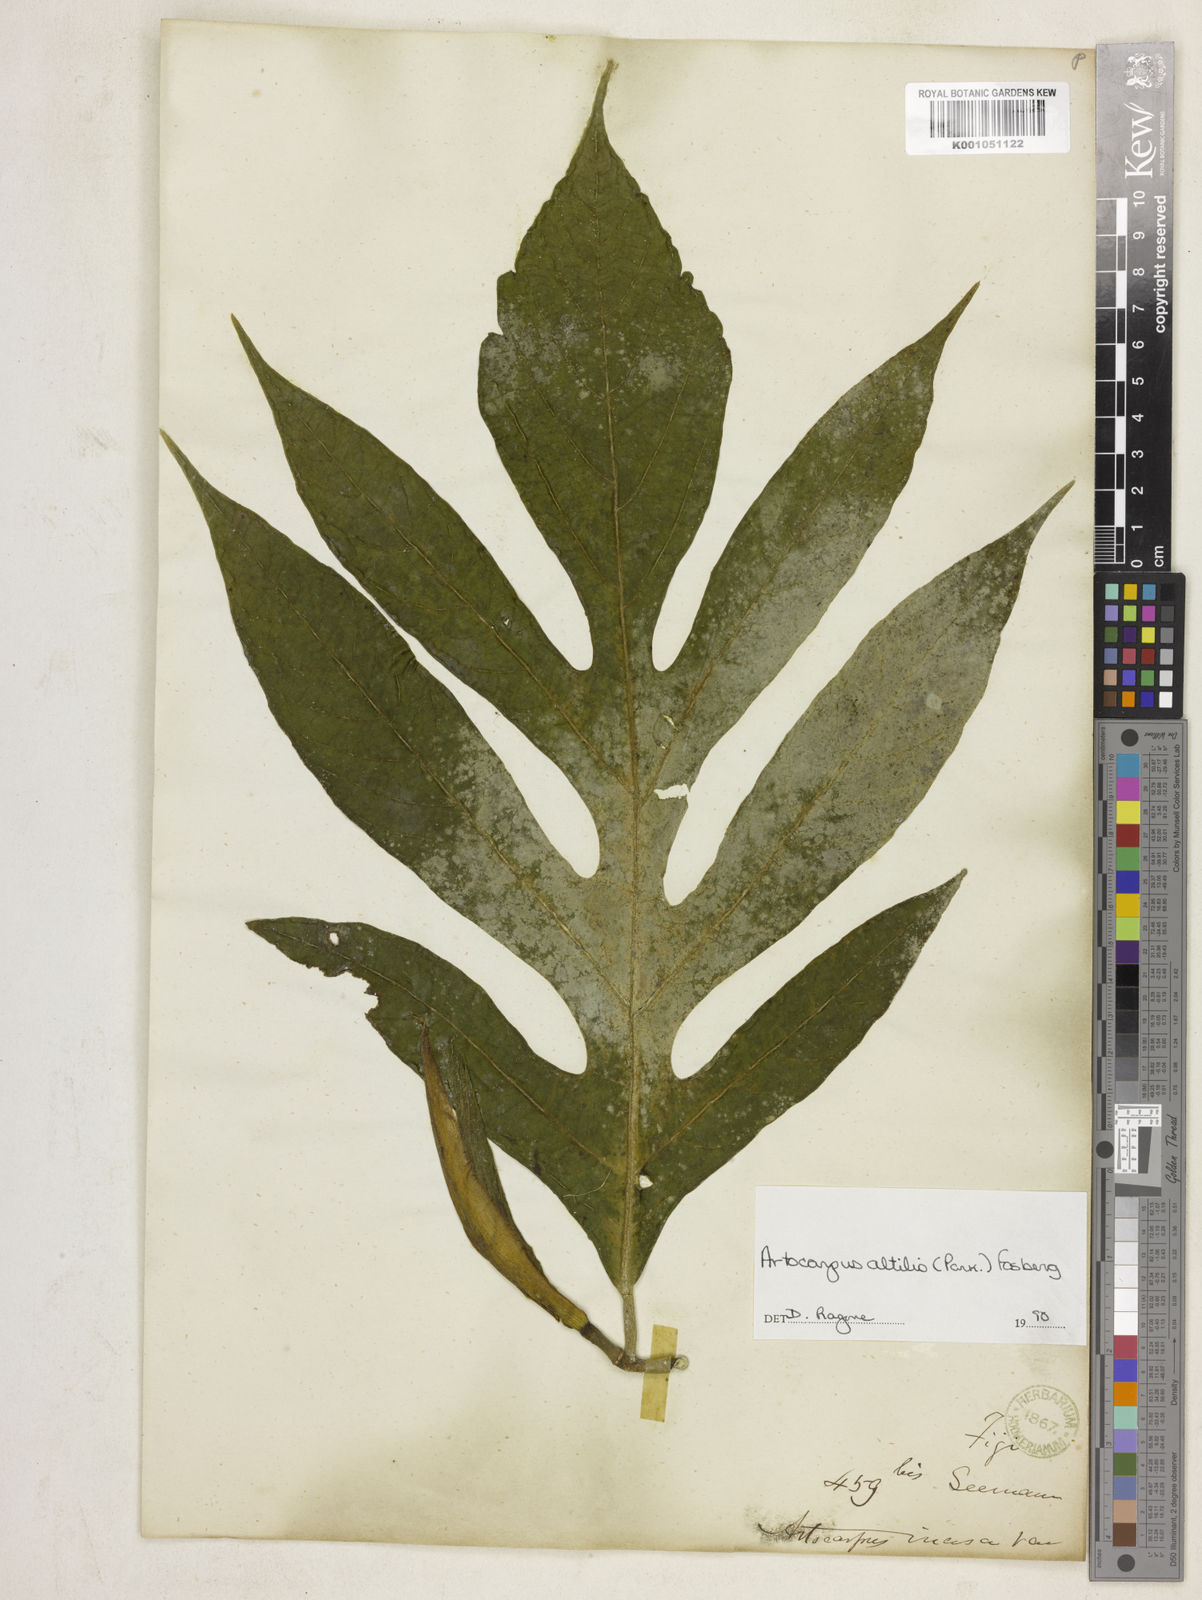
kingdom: Plantae
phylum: Tracheophyta
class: Magnoliopsida
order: Rosales
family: Moraceae
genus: Artocarpus
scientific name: Artocarpus altilis
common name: Breadfruit
